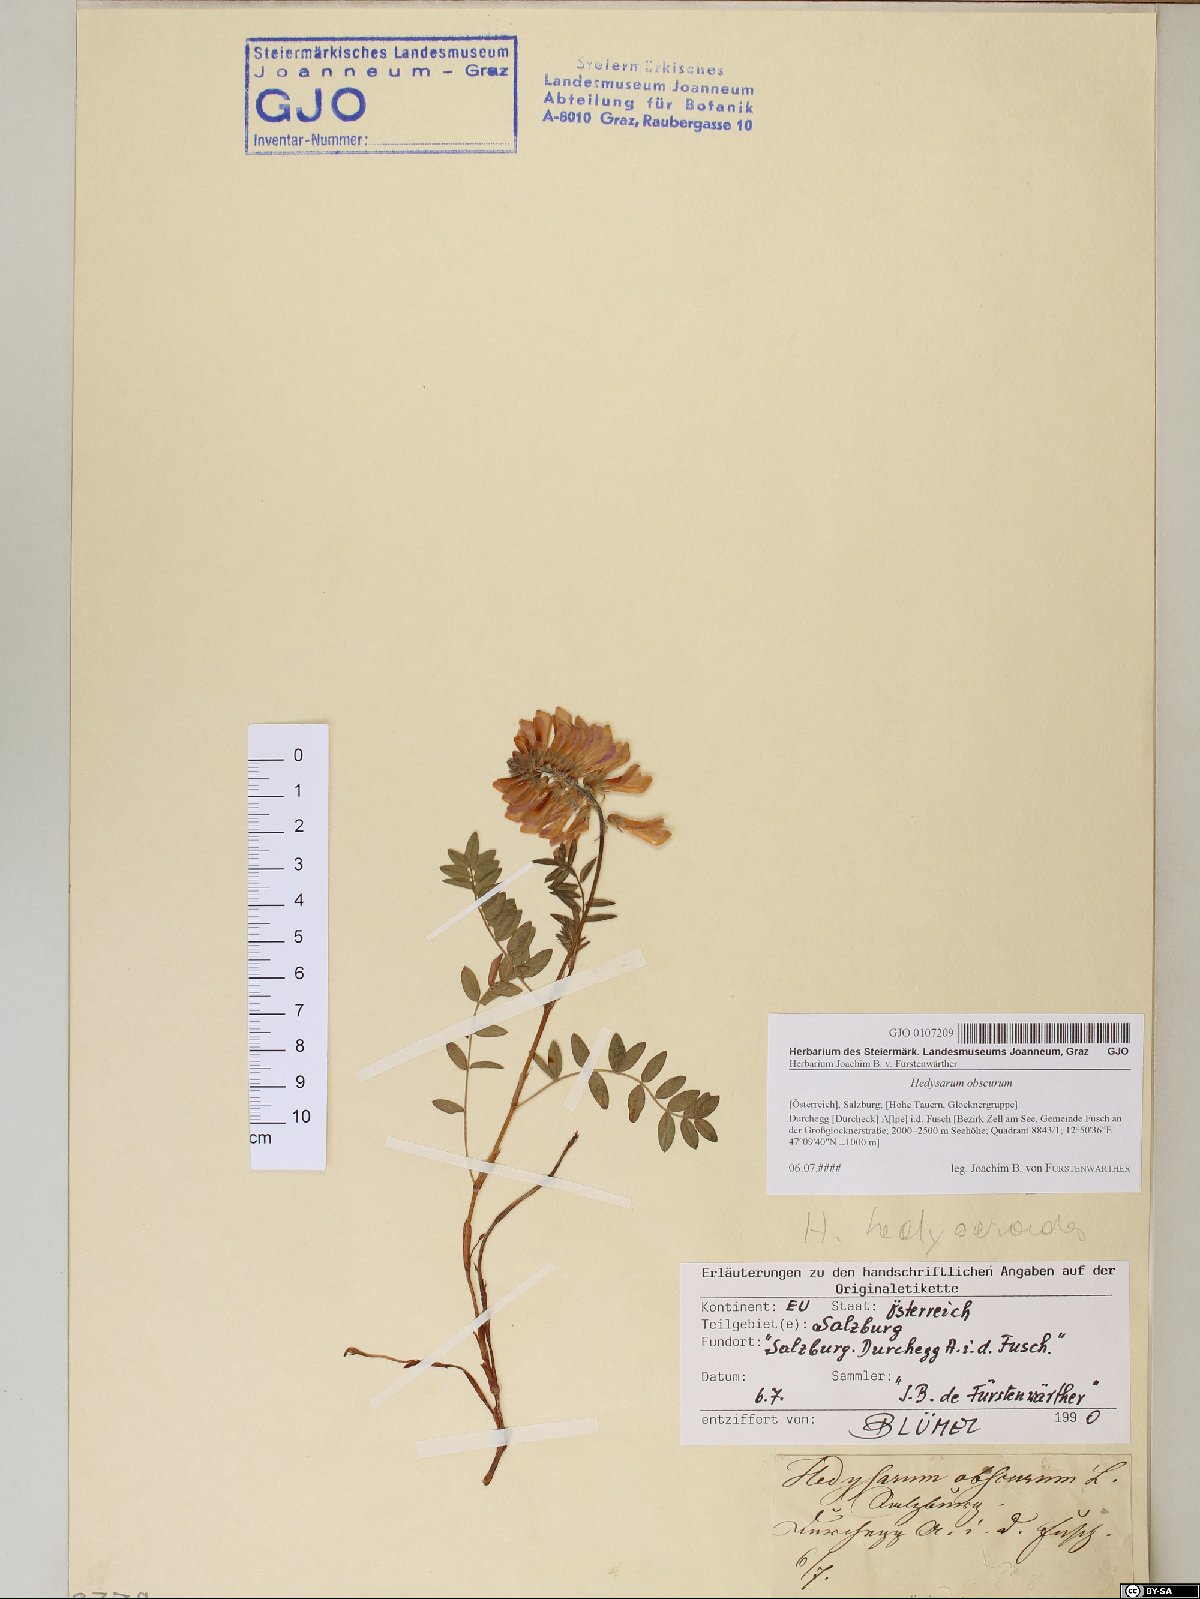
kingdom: Plantae
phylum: Tracheophyta
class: Magnoliopsida
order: Fabales
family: Fabaceae
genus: Hedysarum
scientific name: Hedysarum hedysaroides
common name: Alpine french-honeysuckle
